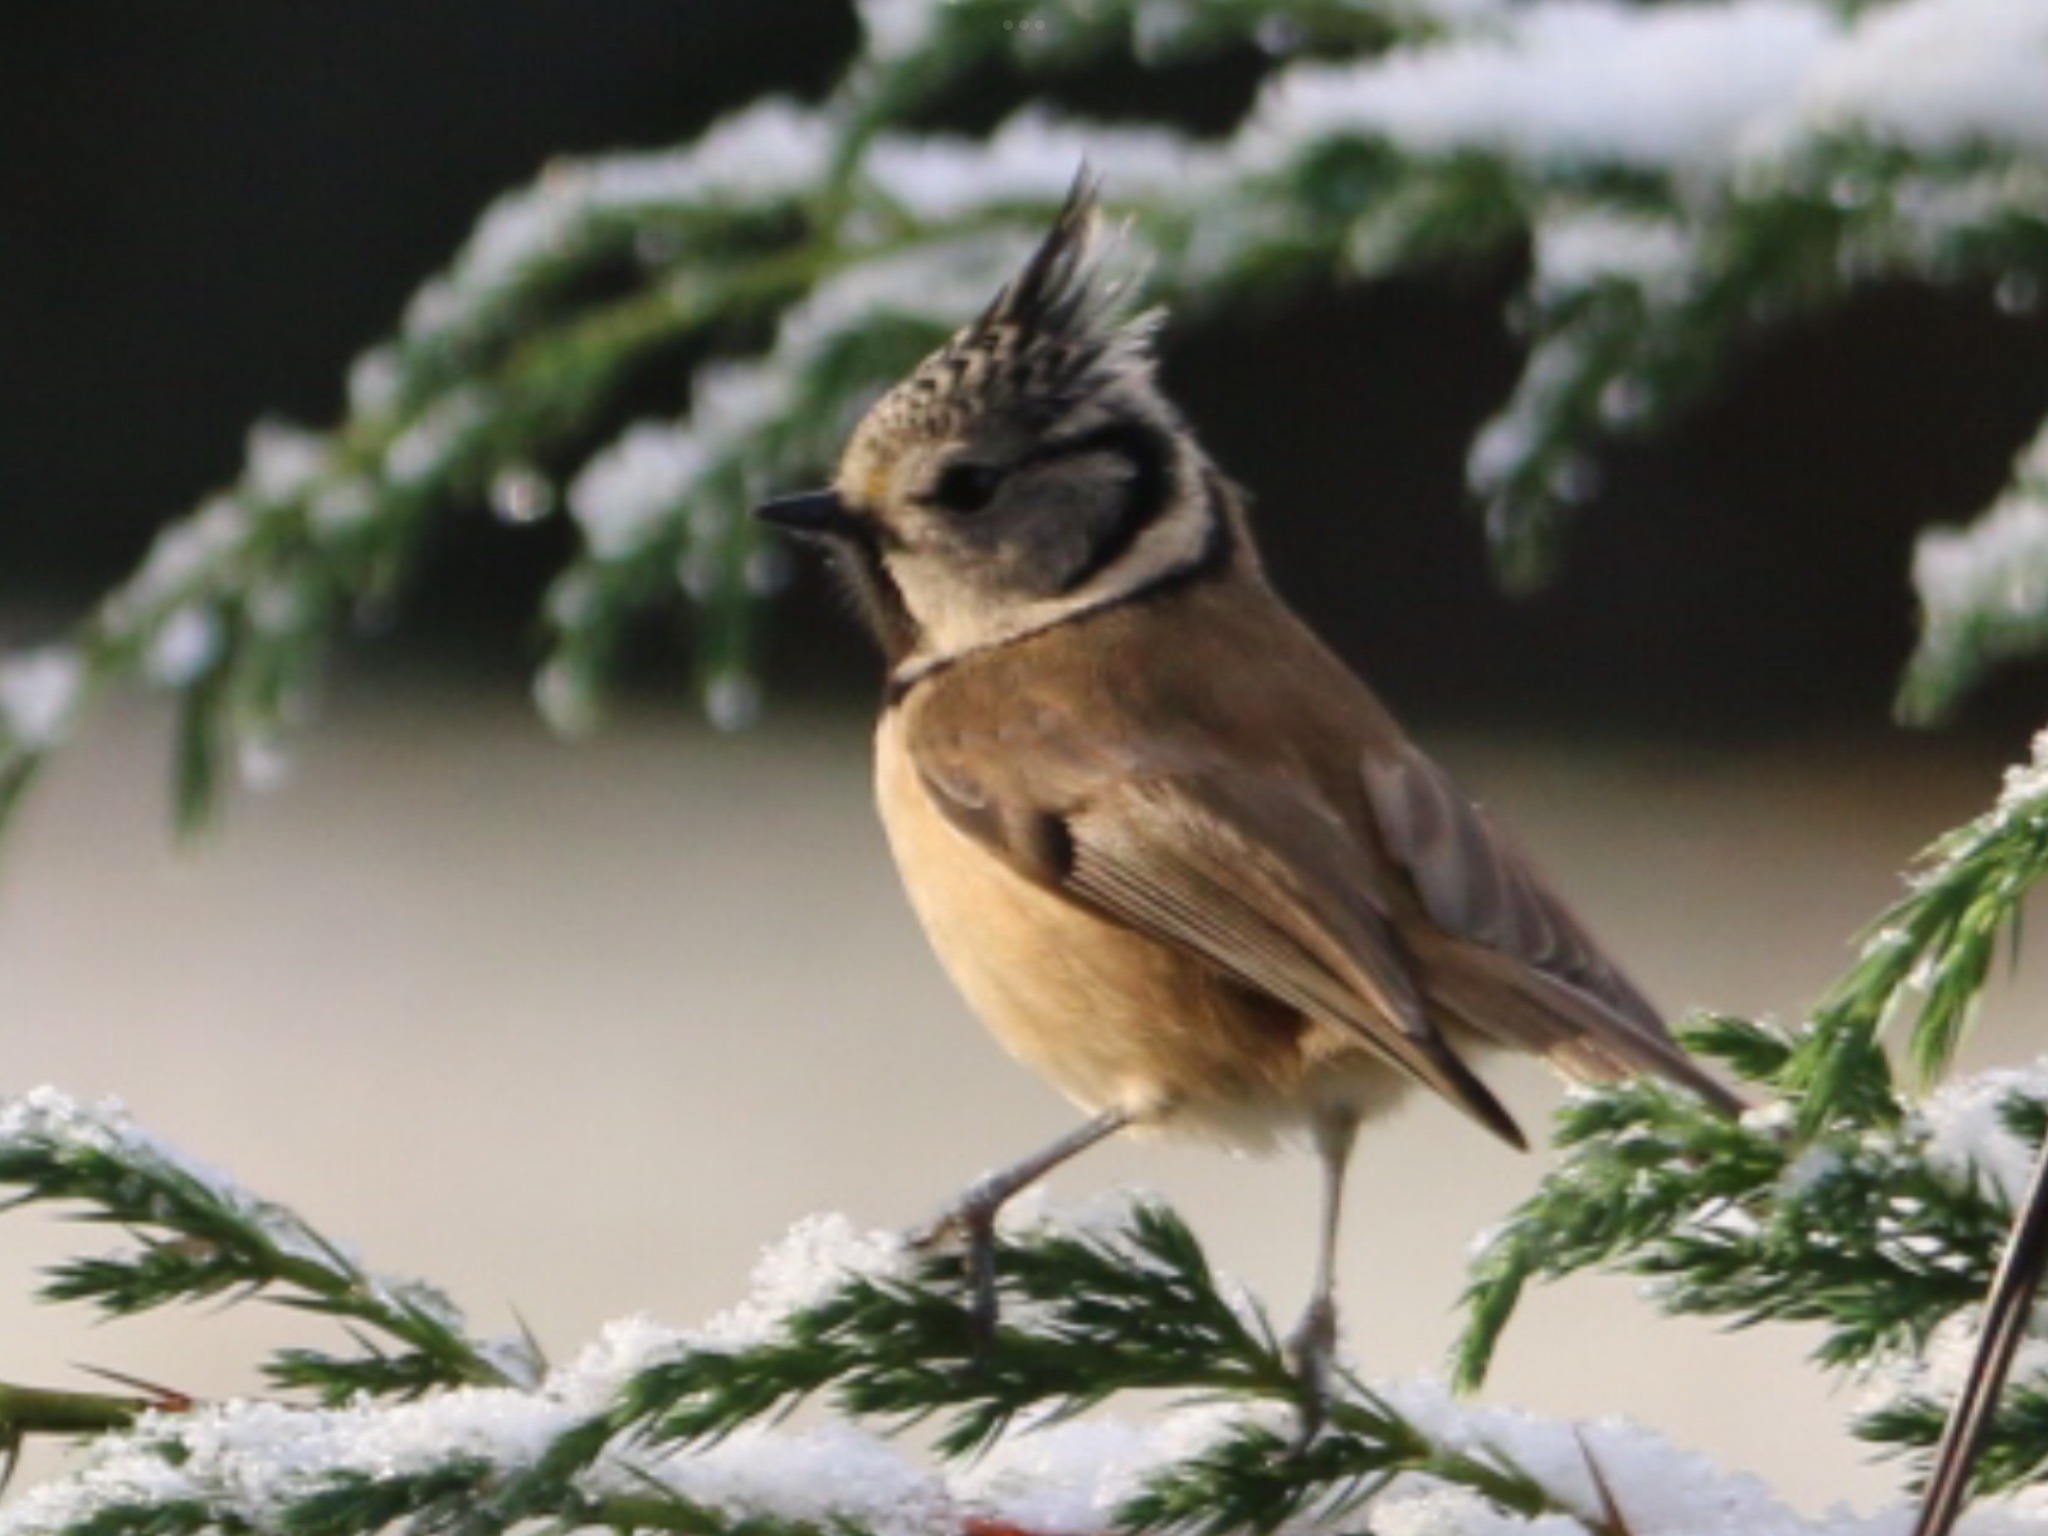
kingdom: Animalia
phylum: Chordata
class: Aves
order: Passeriformes
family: Paridae
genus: Lophophanes
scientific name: Lophophanes cristatus
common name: Topmejse
